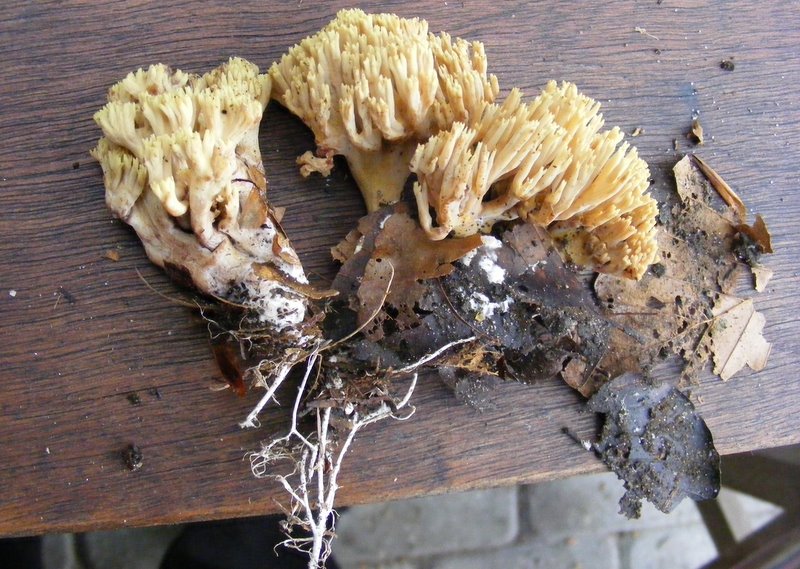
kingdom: Fungi
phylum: Basidiomycota
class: Agaricomycetes
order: Gomphales
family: Gomphaceae
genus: Ramaria
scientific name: Ramaria stricta
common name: rank koralsvamp
